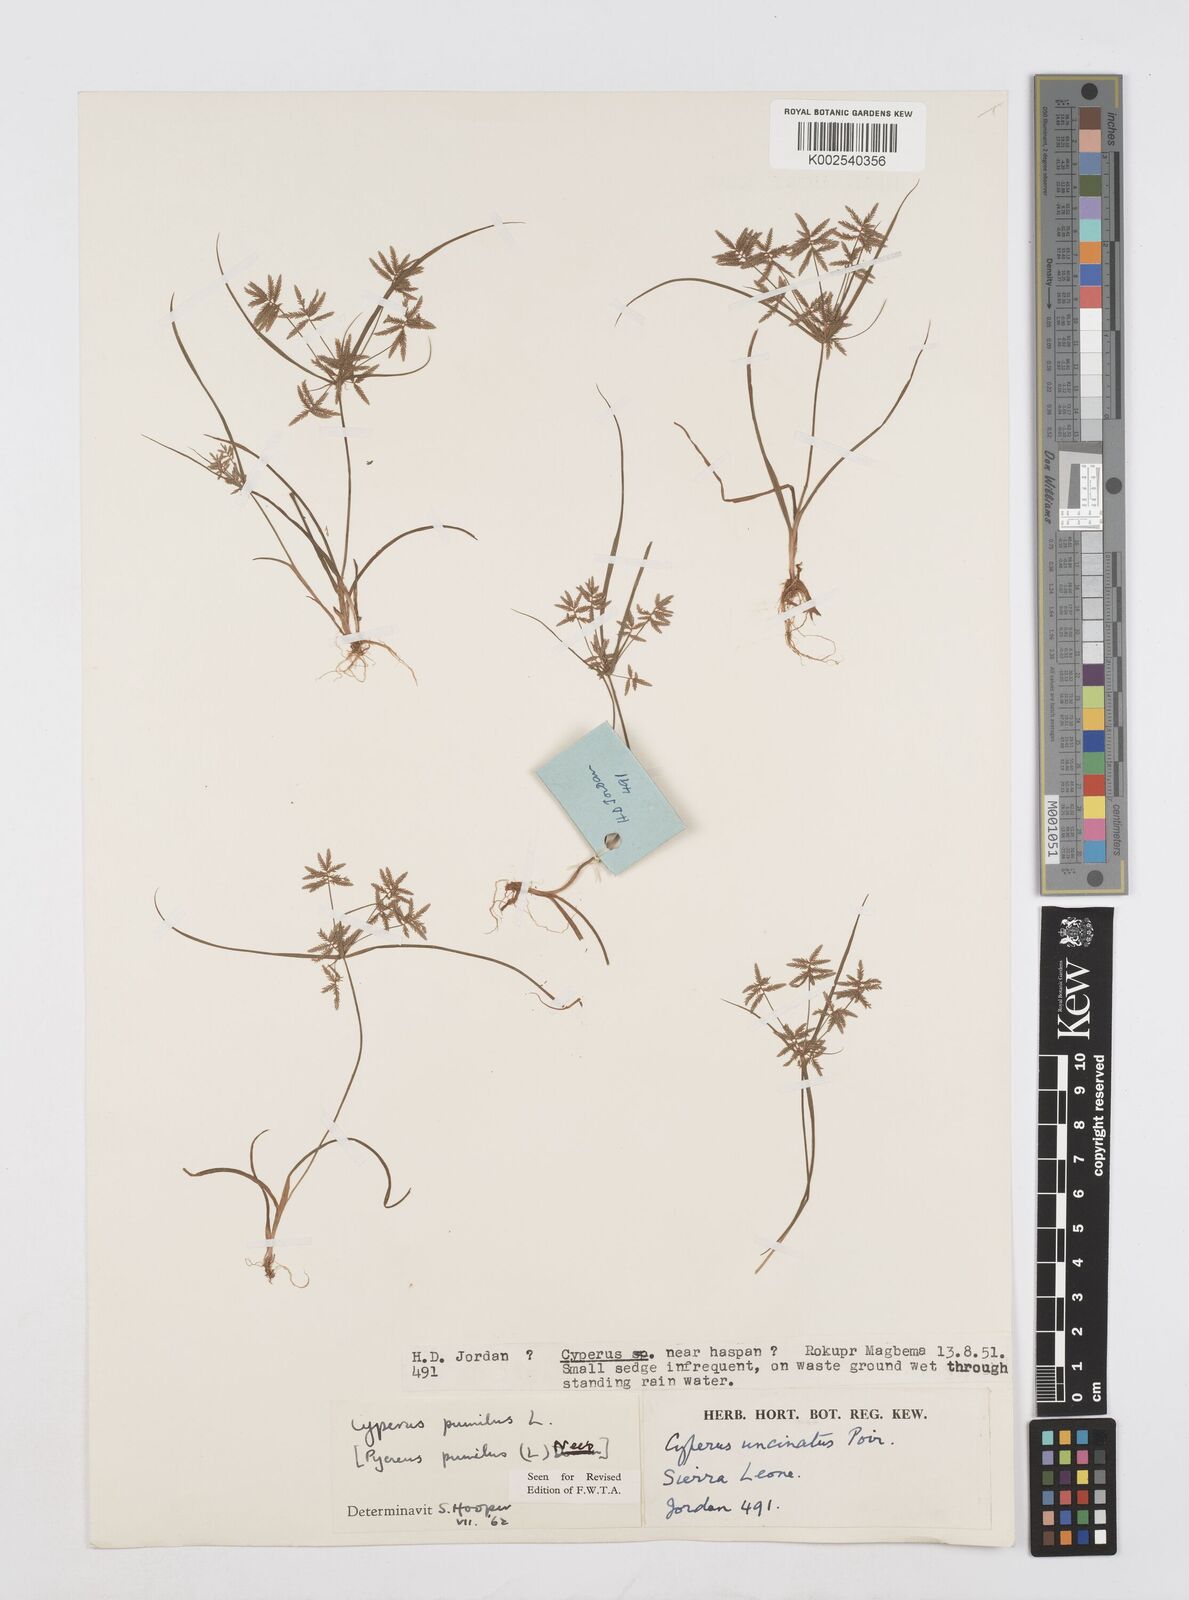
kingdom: Plantae
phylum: Tracheophyta
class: Liliopsida
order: Poales
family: Cyperaceae
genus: Cyperus
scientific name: Cyperus pumilus
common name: Low flatsedge
